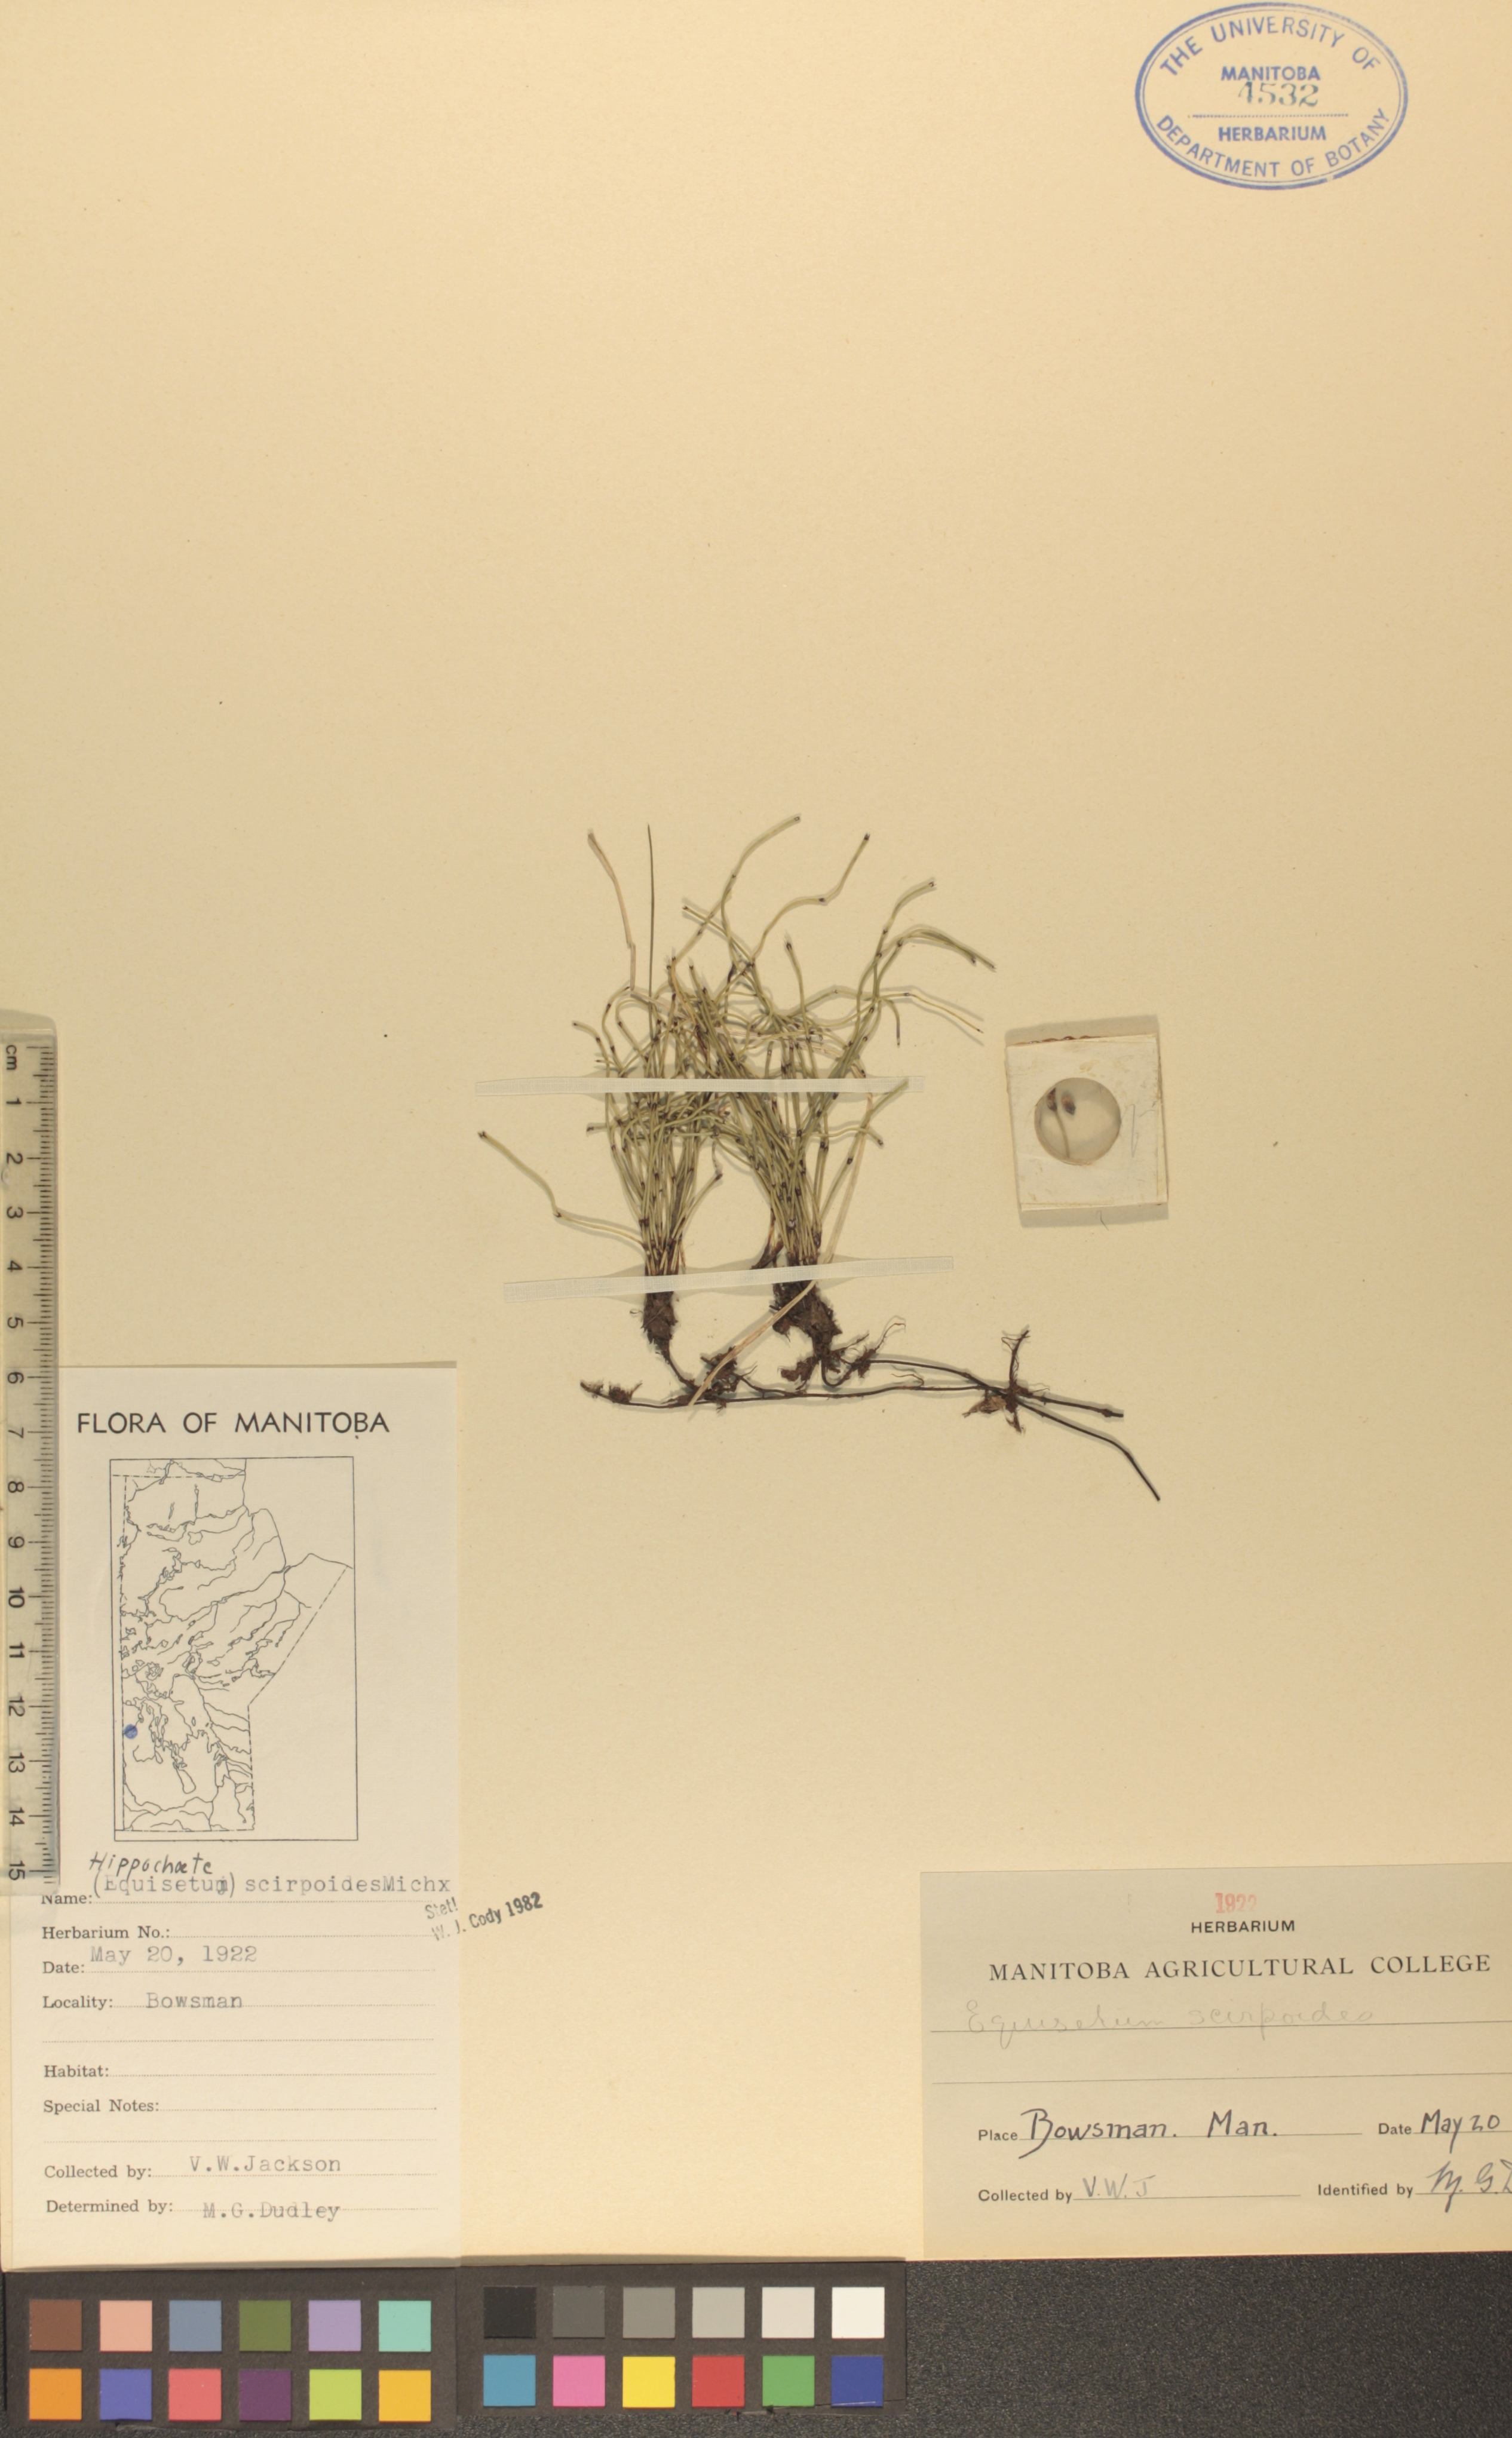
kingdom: Plantae
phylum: Tracheophyta
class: Polypodiopsida
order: Equisetales
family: Equisetaceae
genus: Equisetum
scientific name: Equisetum scirpoides
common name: Delicate horsetail
